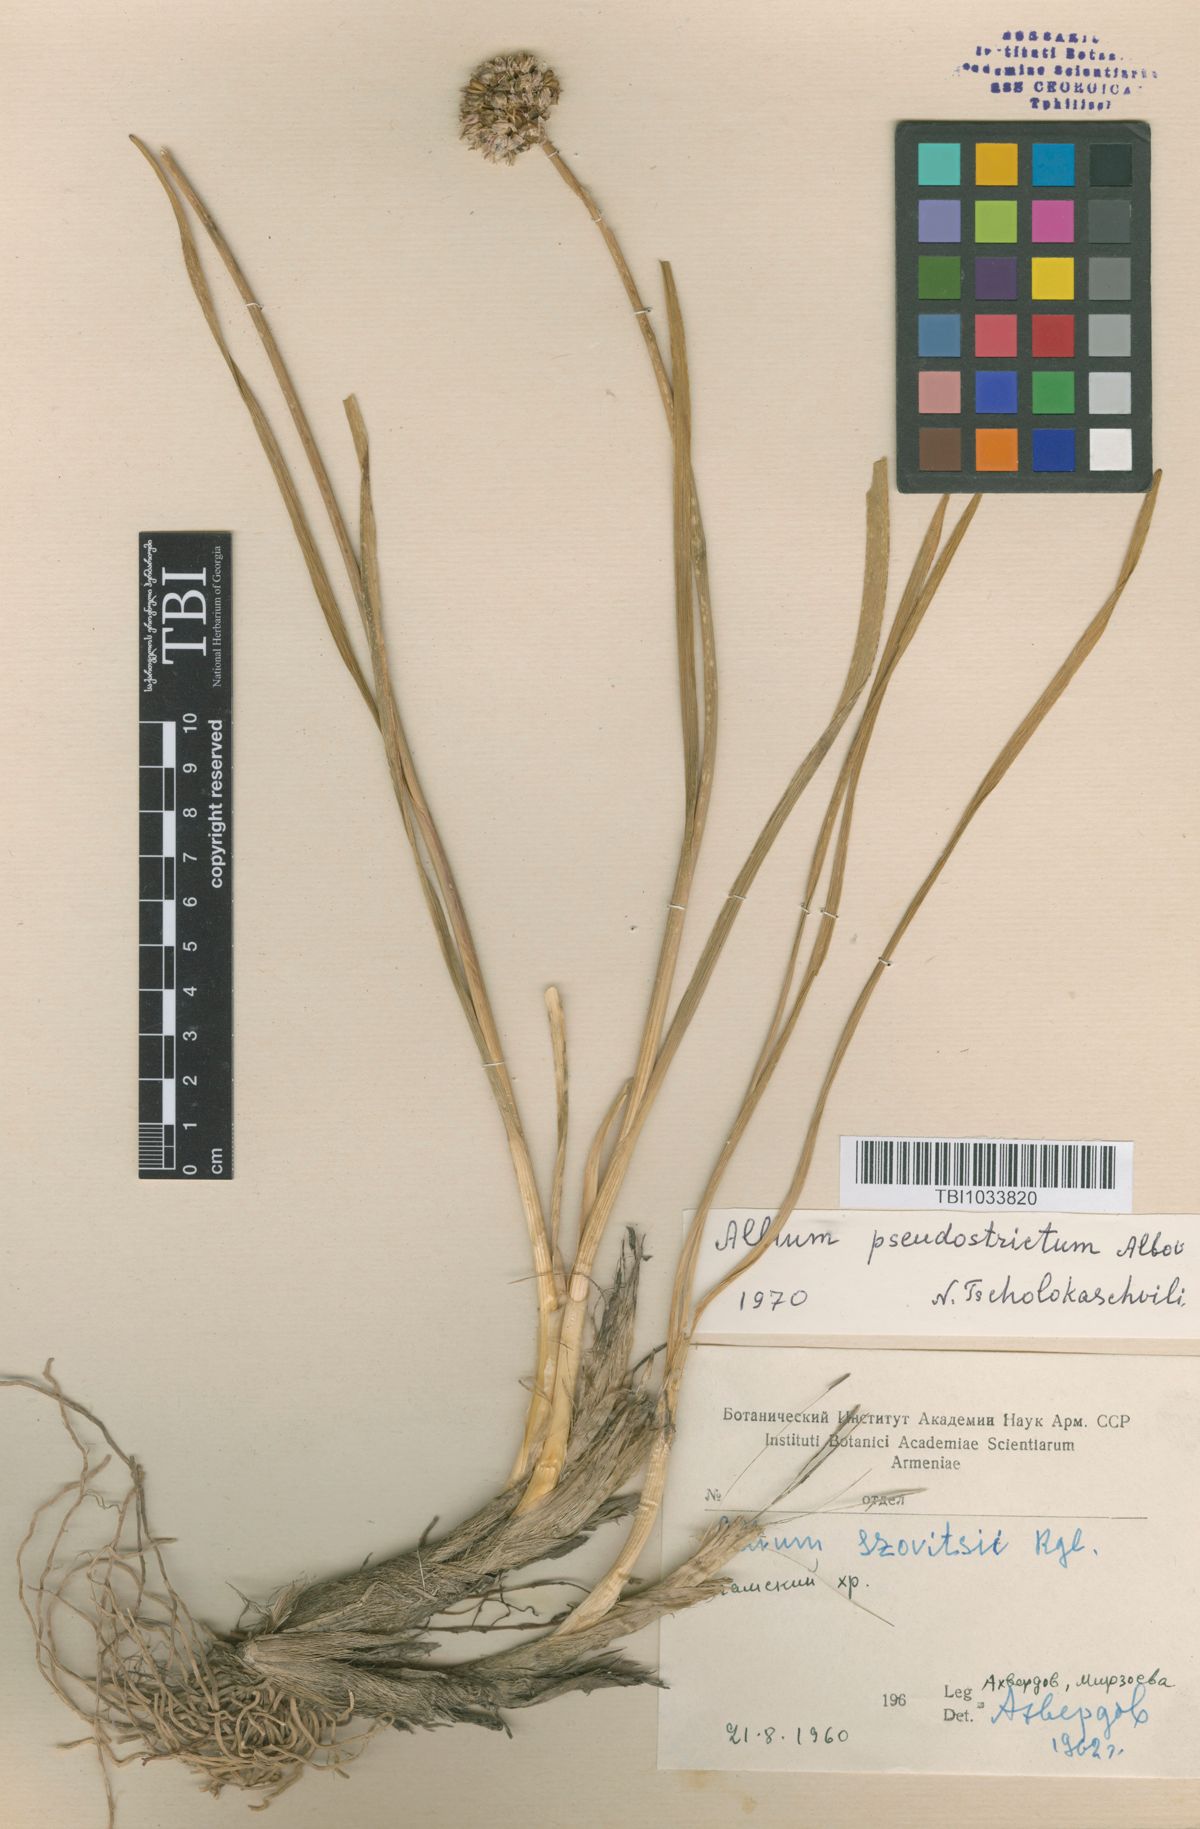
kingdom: Plantae
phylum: Tracheophyta
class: Liliopsida
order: Asparagales
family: Amaryllidaceae
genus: Allium
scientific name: Allium pseudostrictum
